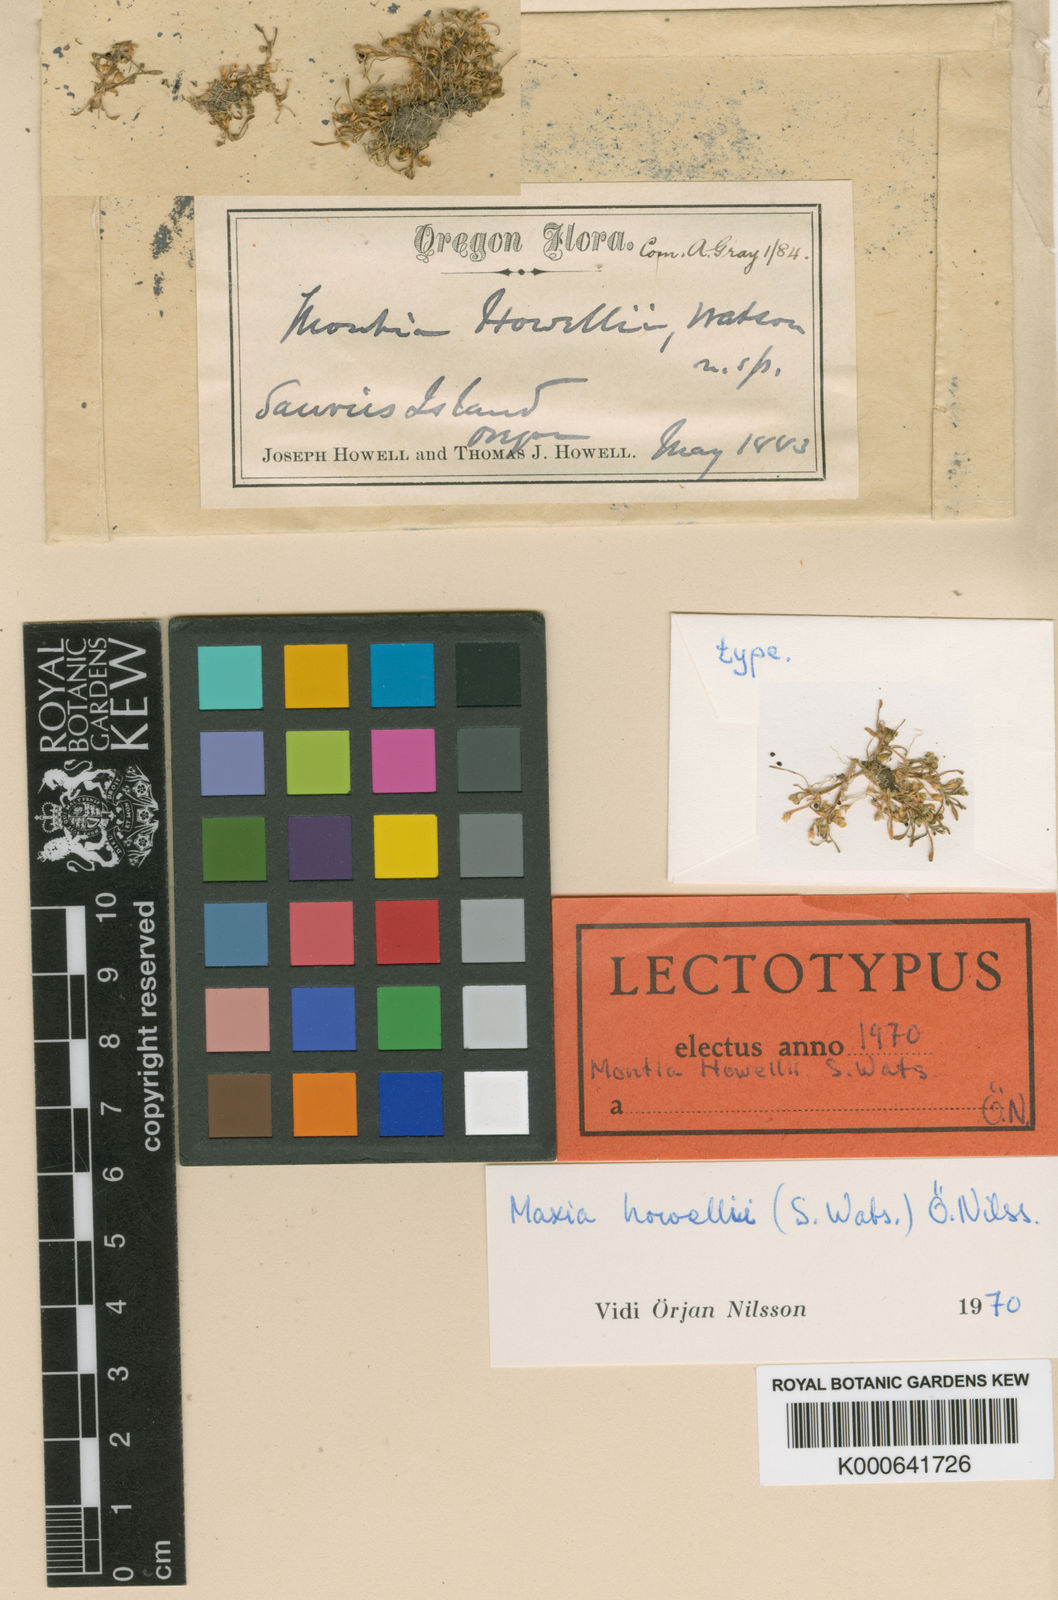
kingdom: Plantae
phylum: Tracheophyta
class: Magnoliopsida
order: Caryophyllales
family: Montiaceae
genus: Montia
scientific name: Montia howellii
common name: Howell's miner's-lettuce
